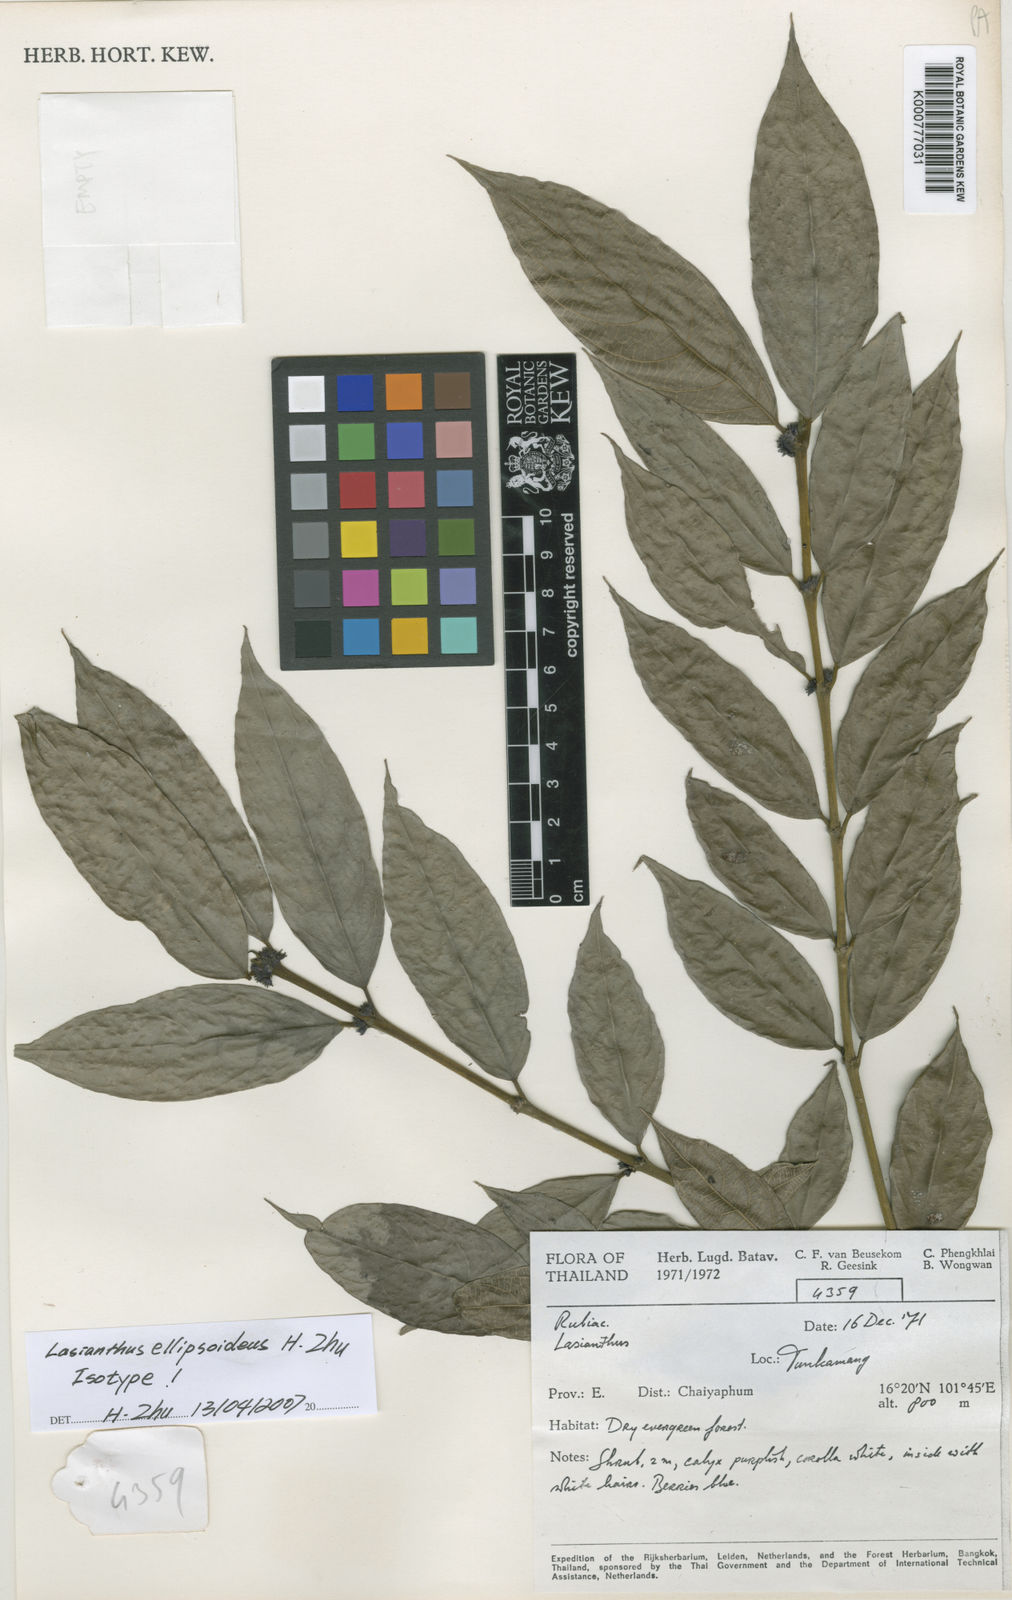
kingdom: Plantae
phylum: Tracheophyta
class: Magnoliopsida
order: Gentianales
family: Rubiaceae
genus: Lasianthus
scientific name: Lasianthus ellipsoideus
